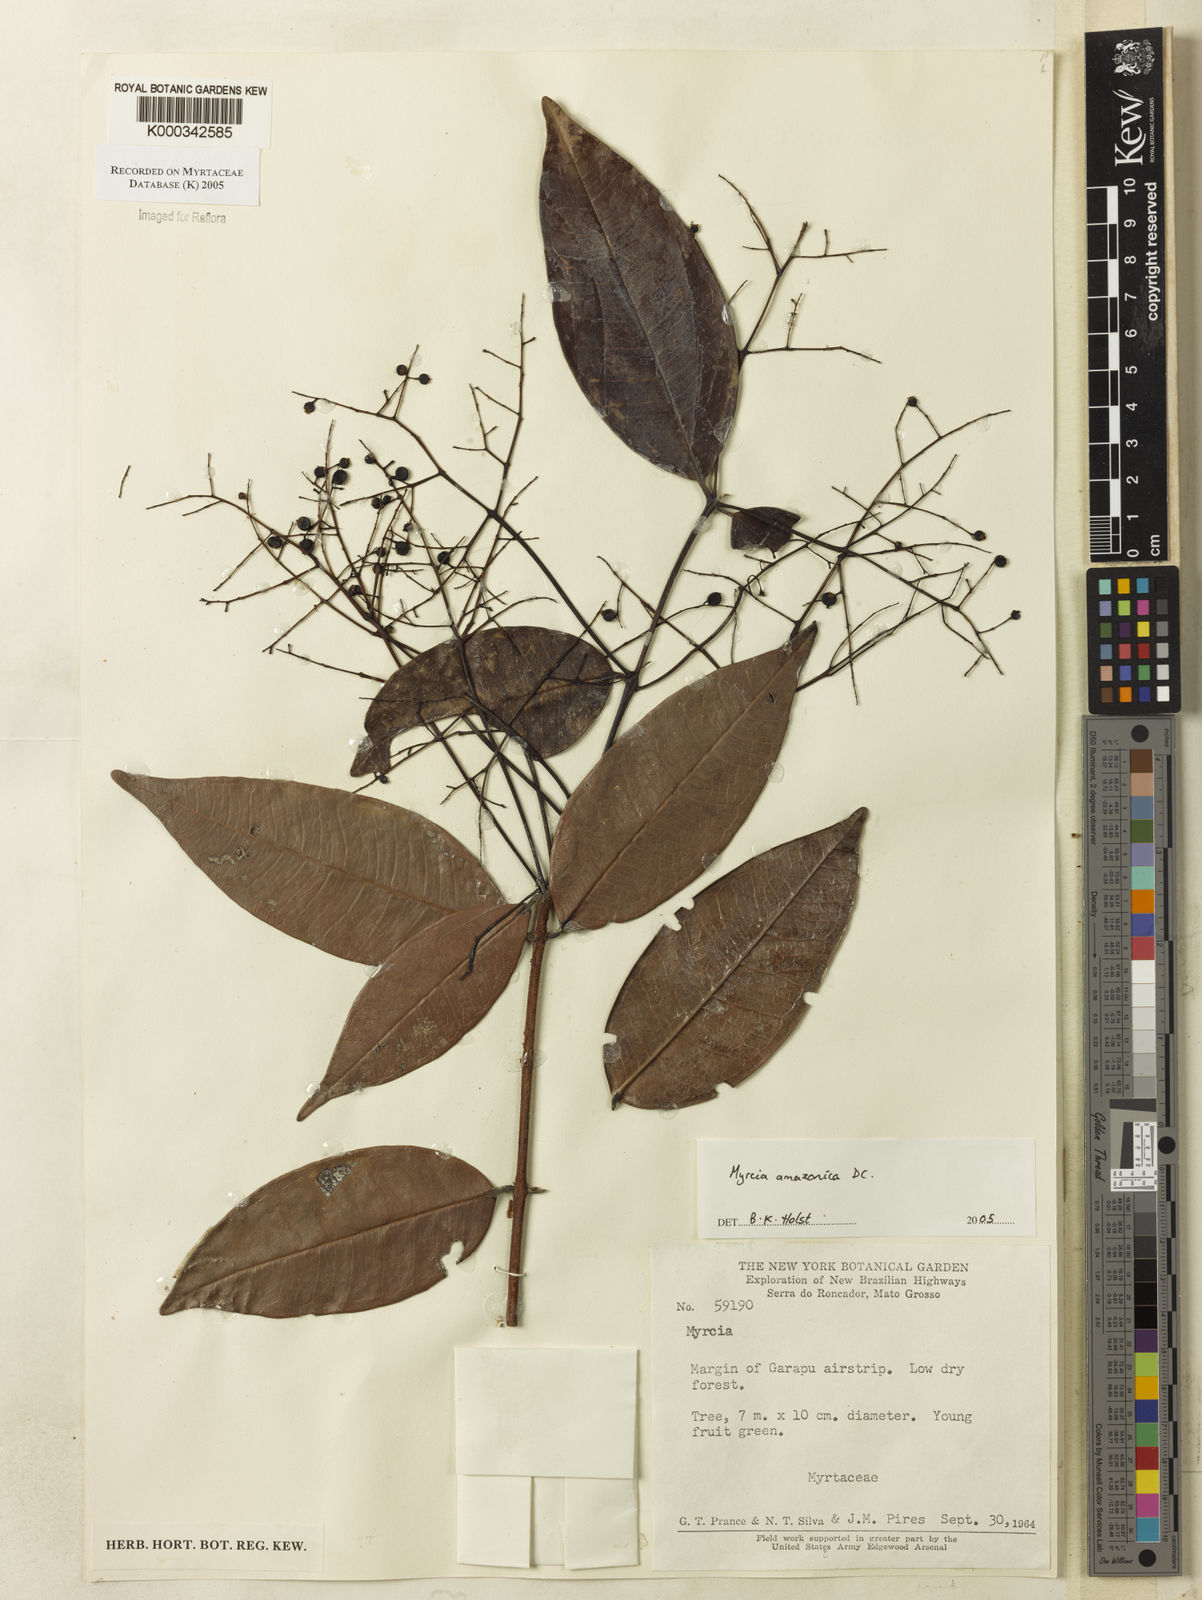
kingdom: Plantae
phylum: Tracheophyta
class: Magnoliopsida
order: Myrtales
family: Myrtaceae
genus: Myrcia
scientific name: Myrcia amazonica
